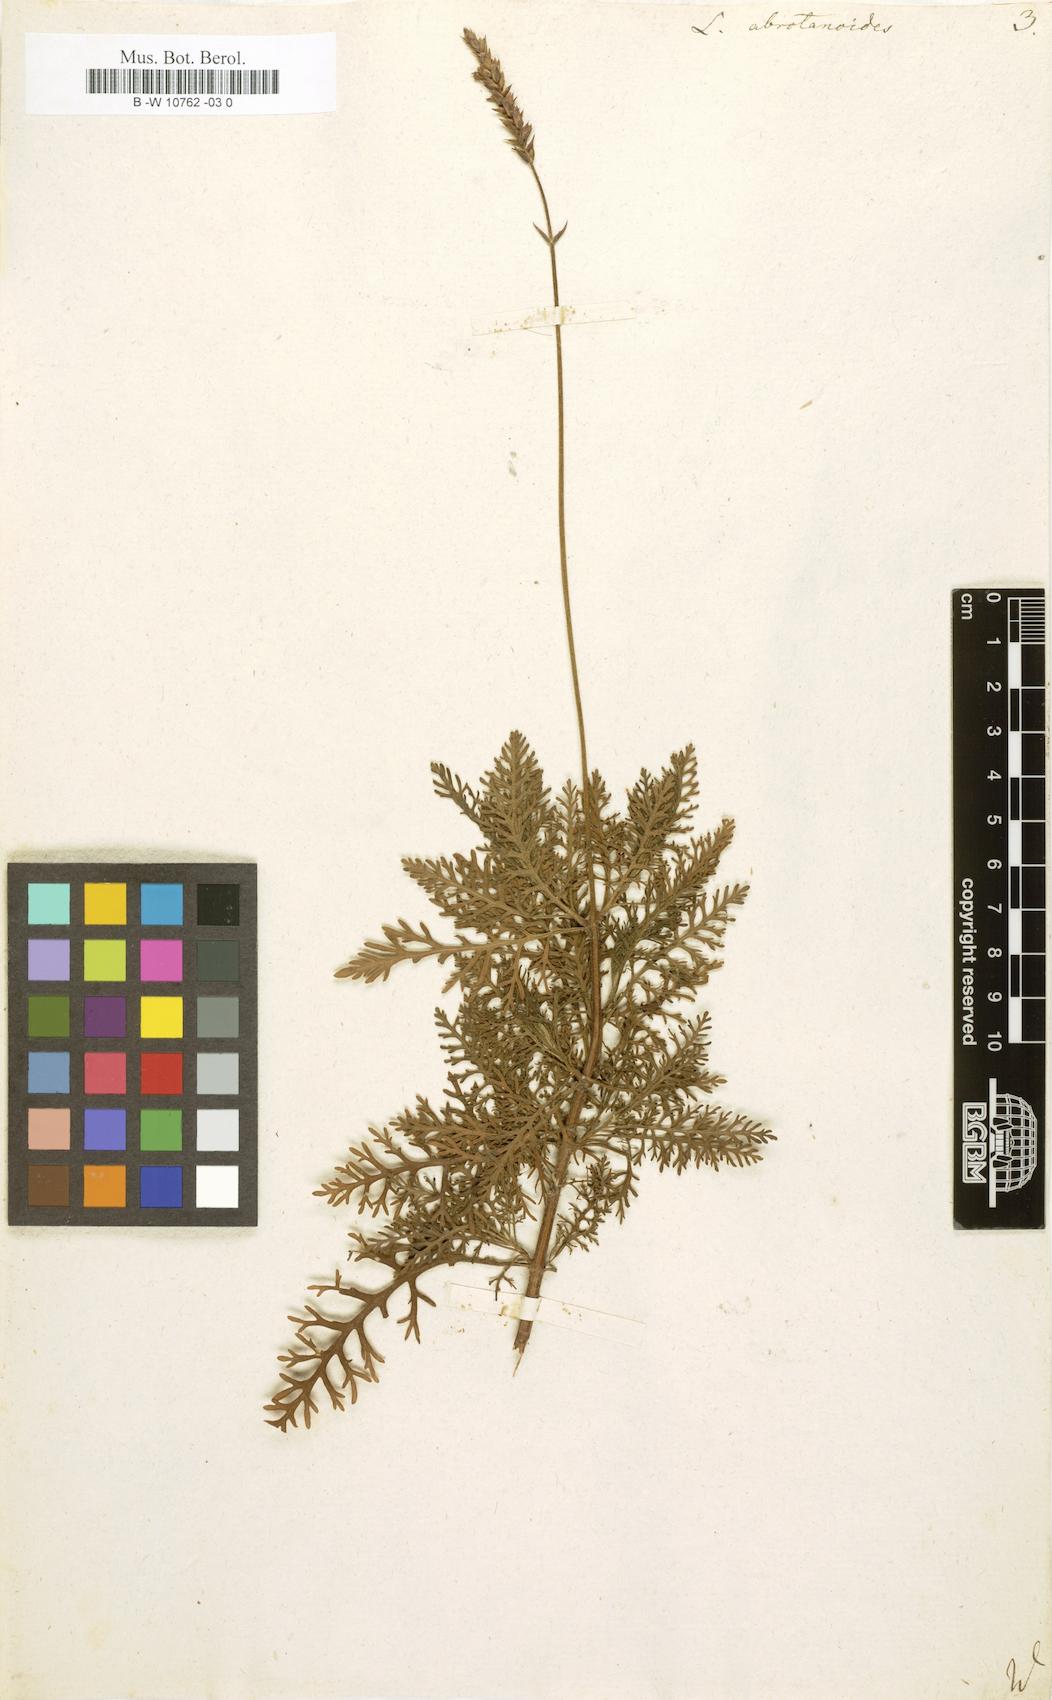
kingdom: Plantae
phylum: Tracheophyta
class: Magnoliopsida
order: Lamiales
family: Lamiaceae
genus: Lavandula
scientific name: Lavandula canariensis
